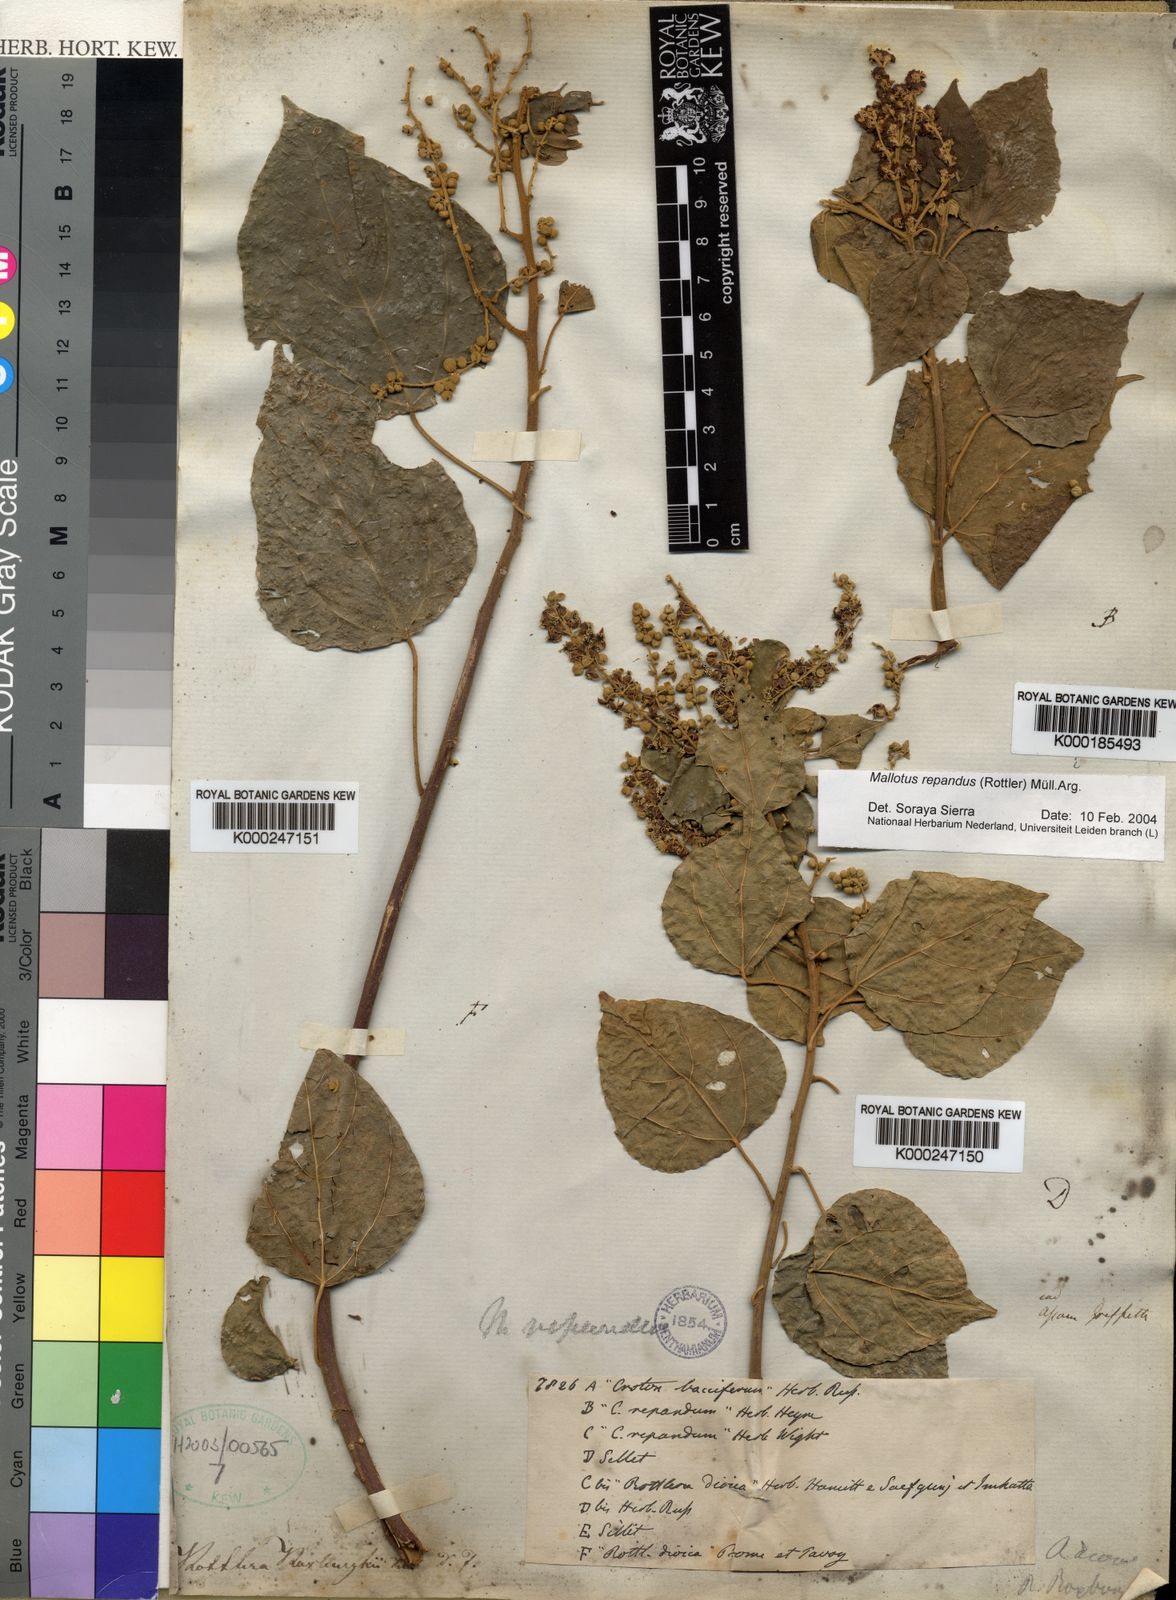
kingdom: Plantae
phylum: Tracheophyta
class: Magnoliopsida
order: Malpighiales
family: Euphorbiaceae
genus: Mallotus
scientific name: Mallotus
